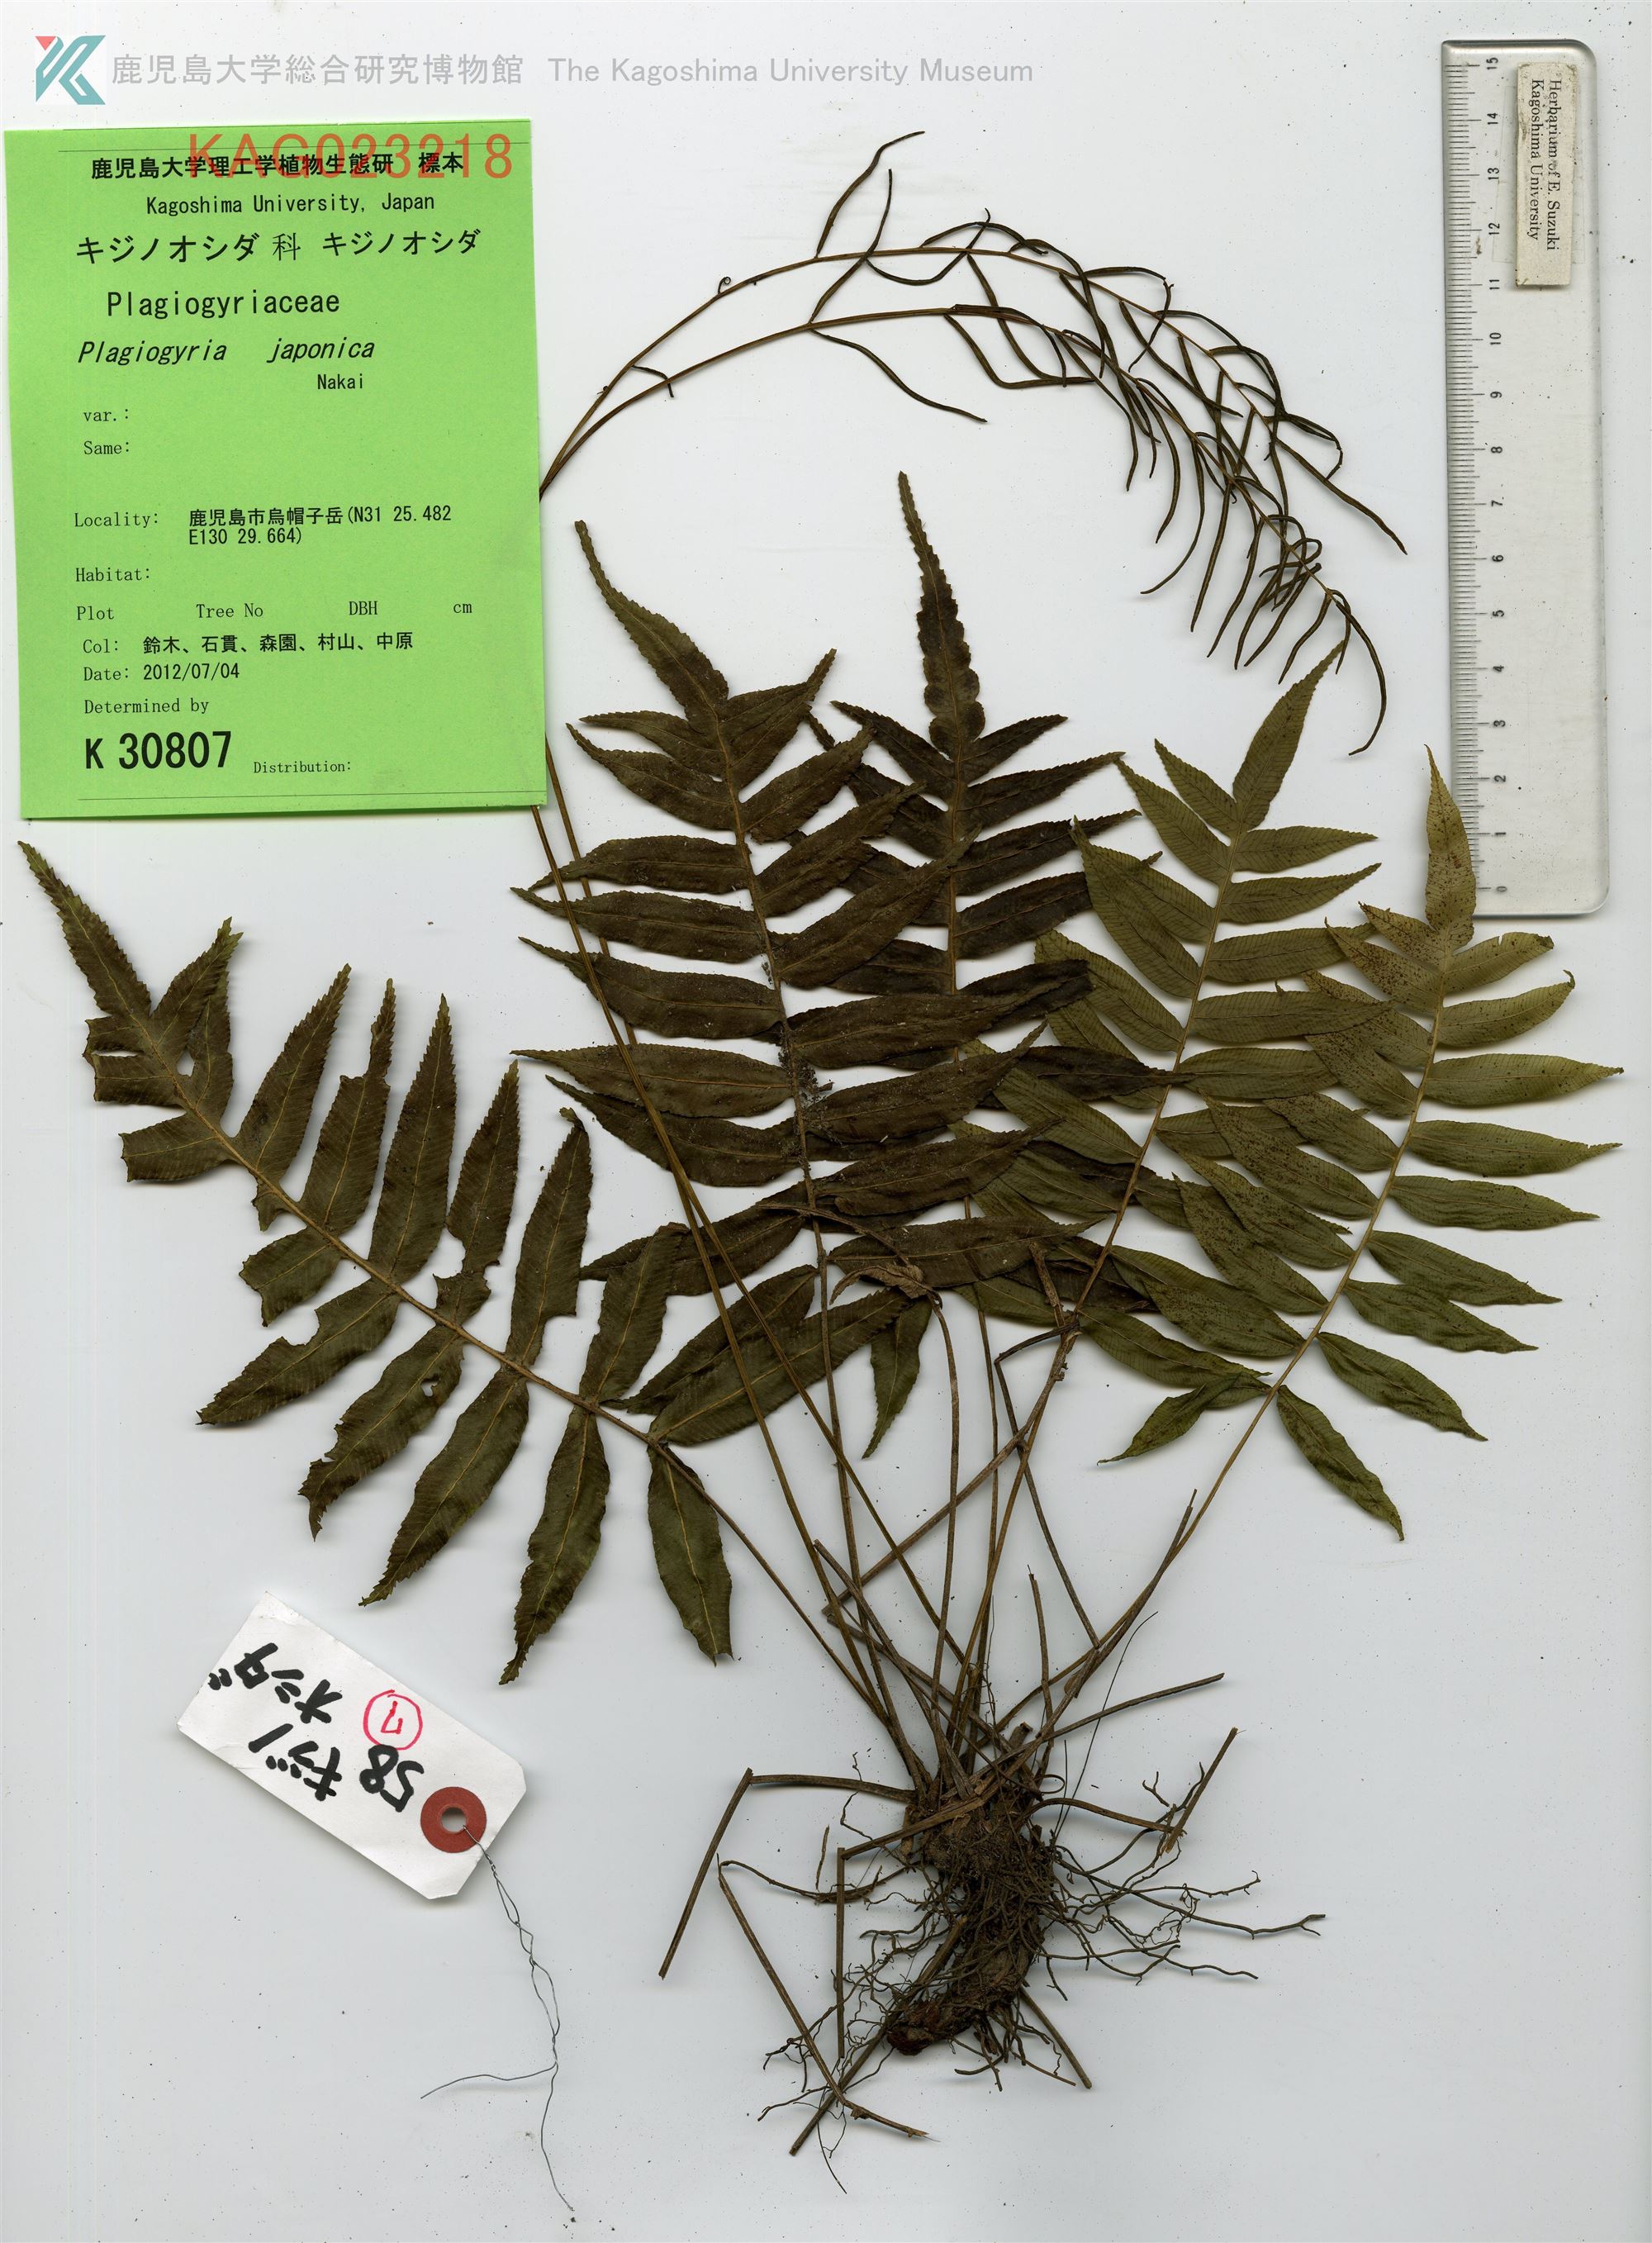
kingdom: Plantae
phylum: Tracheophyta
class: Polypodiopsida
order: Cyatheales
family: Plagiogyriaceae
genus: Plagiogyria
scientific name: Plagiogyria japonica
